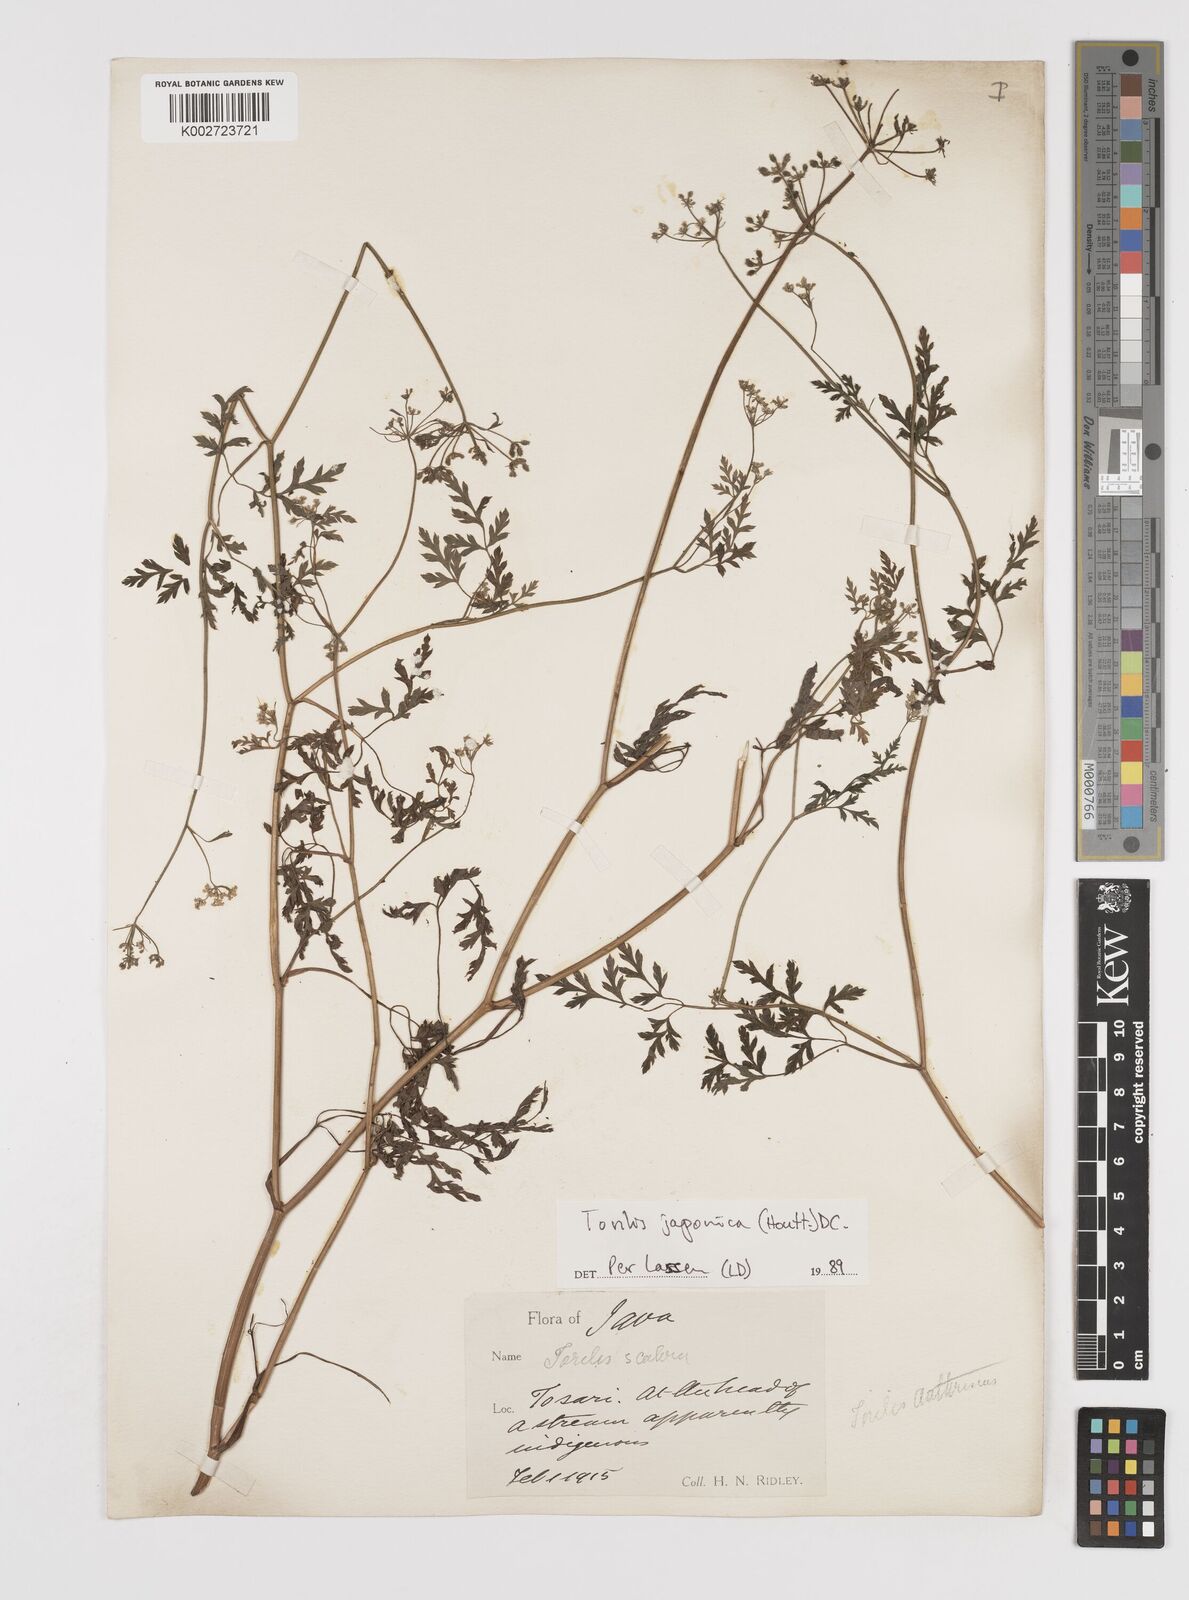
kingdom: Plantae
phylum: Tracheophyta
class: Magnoliopsida
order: Apiales
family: Apiaceae
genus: Torilis
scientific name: Torilis scabra
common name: Rough hedgeparsley
